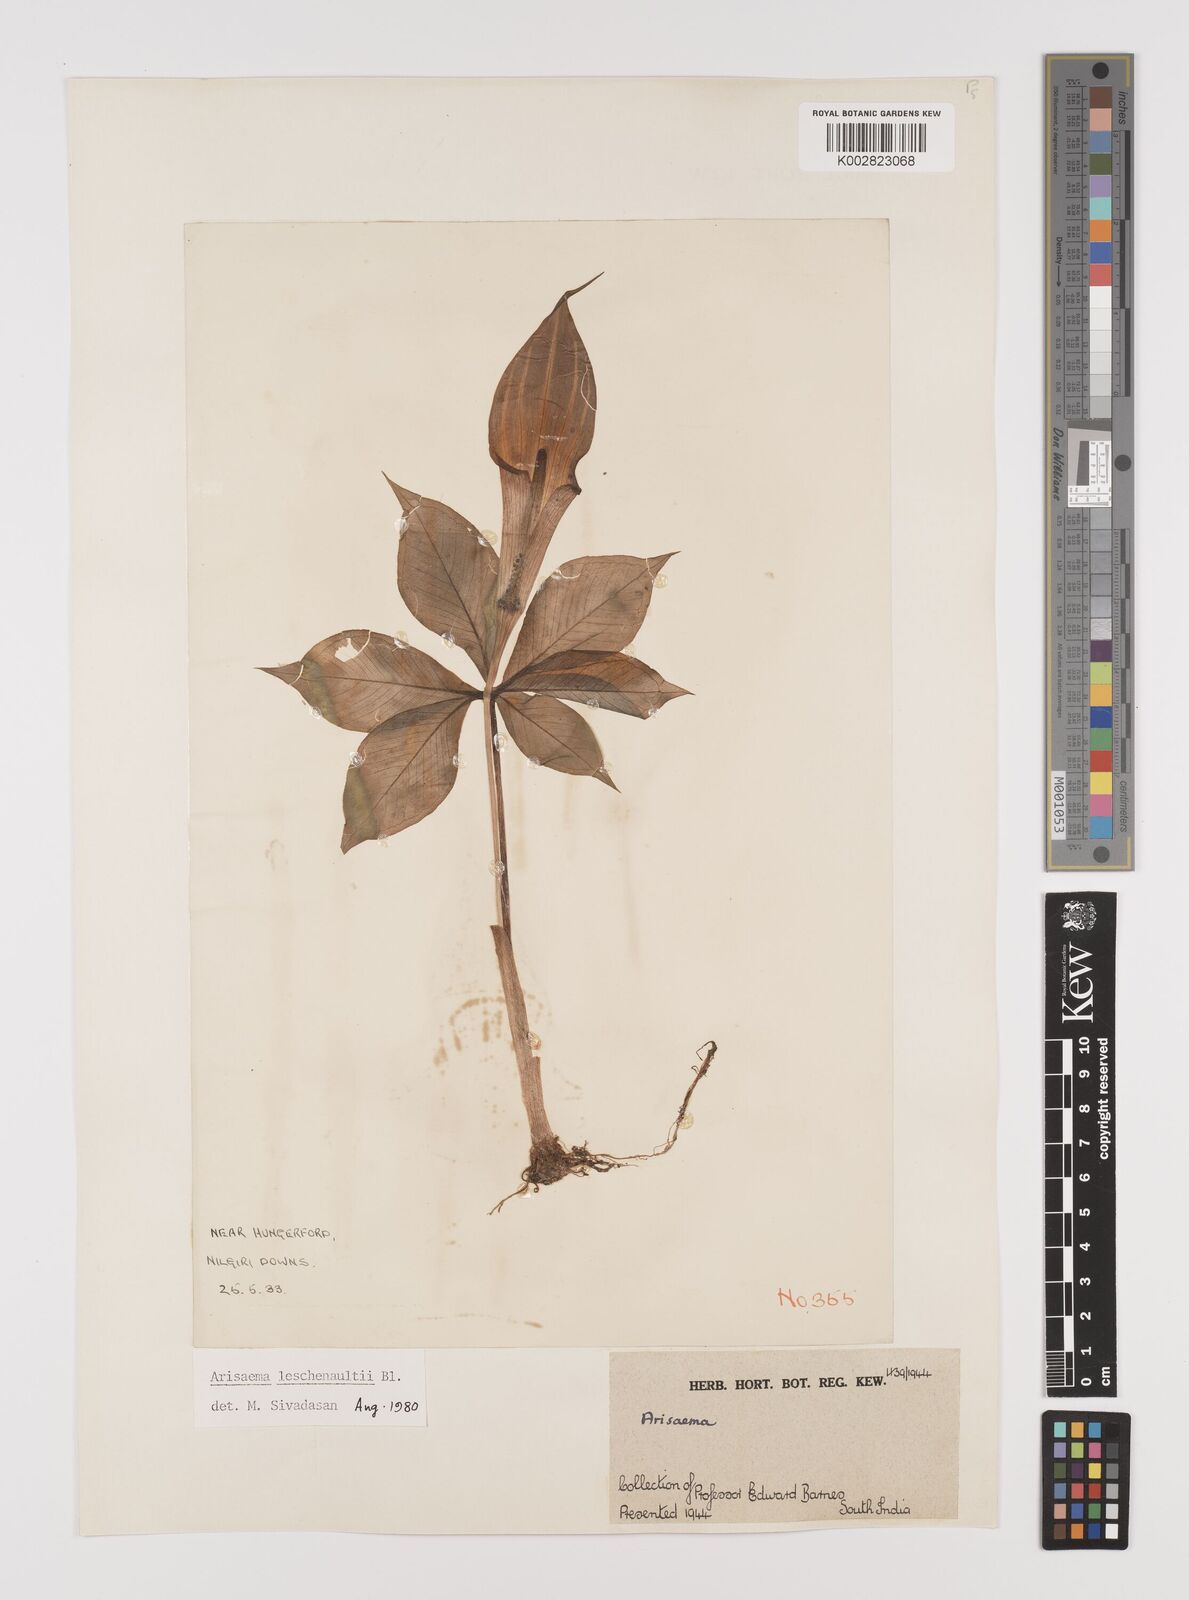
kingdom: Plantae
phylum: Tracheophyta
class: Liliopsida
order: Alismatales
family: Araceae
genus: Arisaema
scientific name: Arisaema leschenaultii
